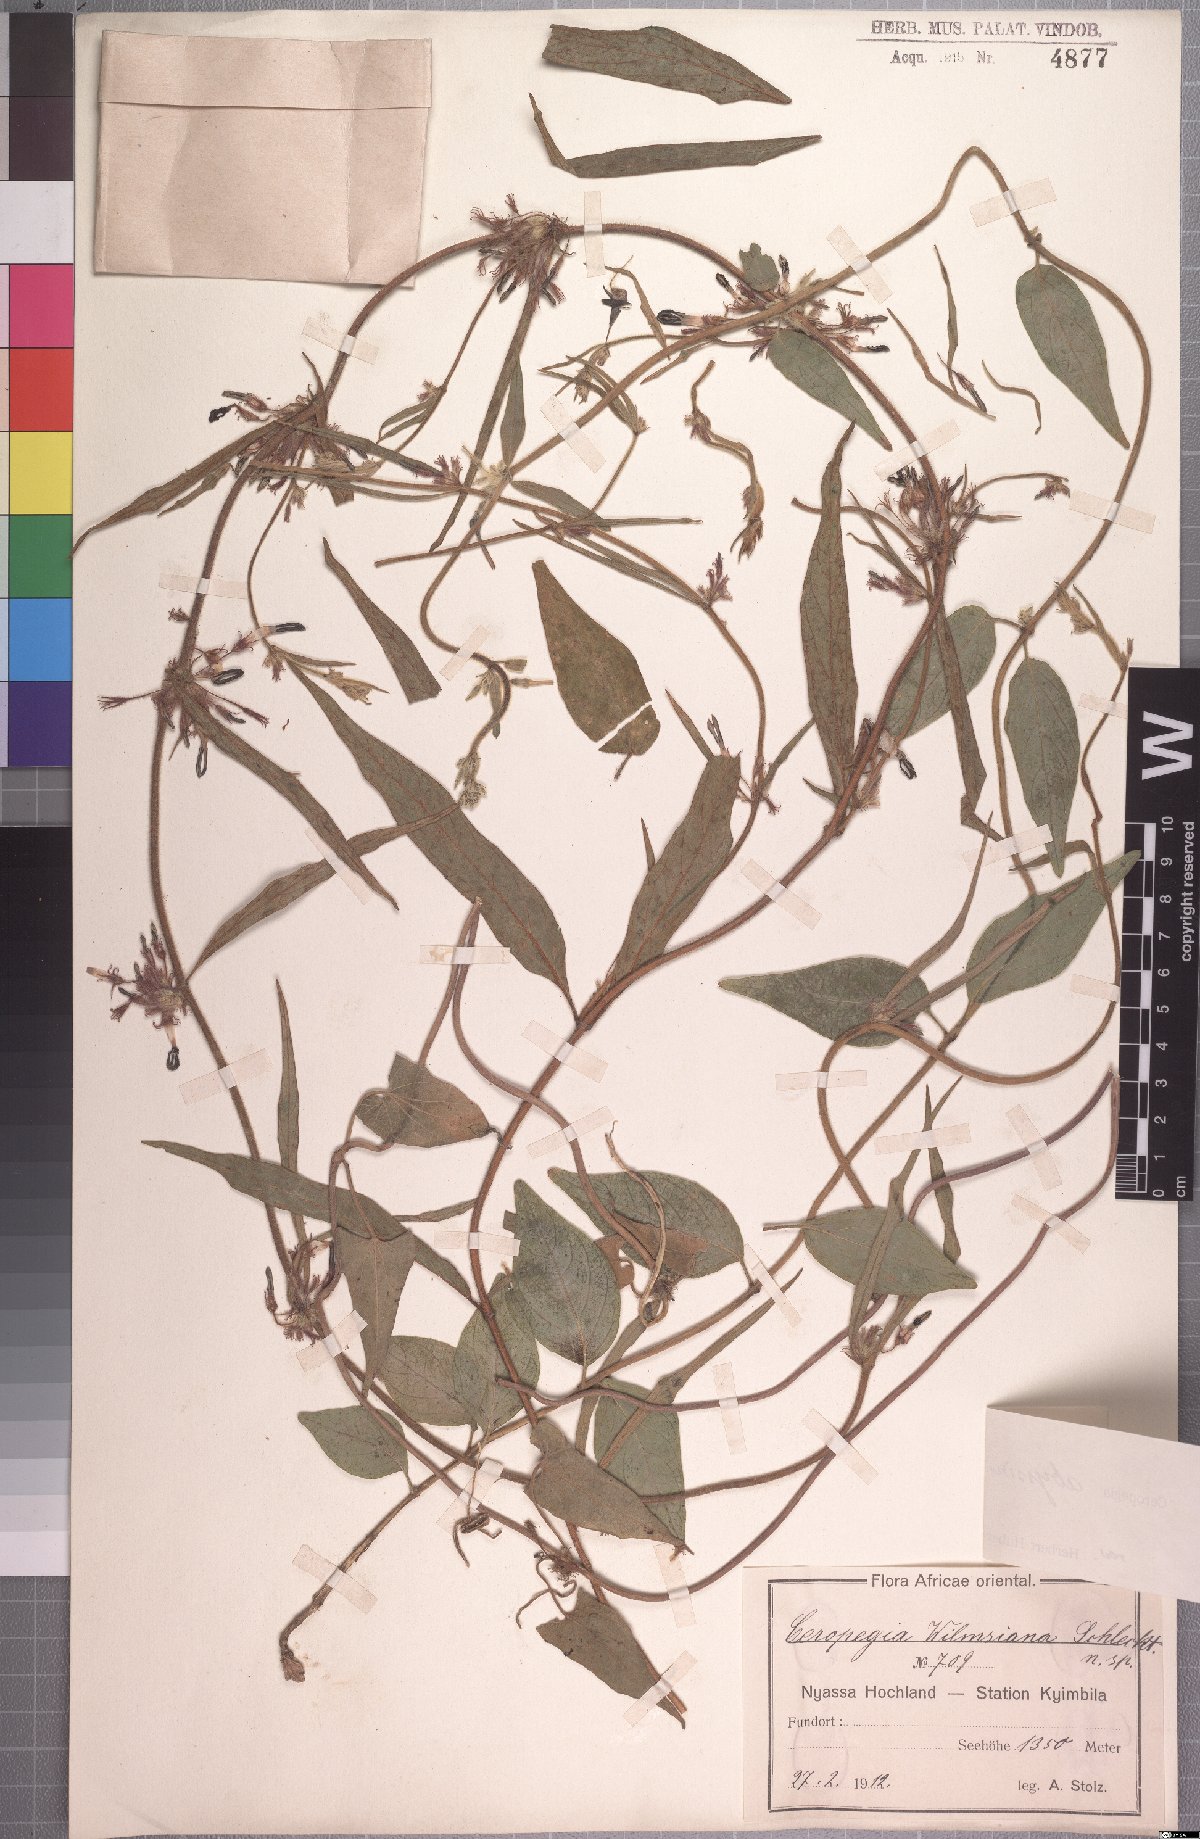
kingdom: Plantae
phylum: Tracheophyta
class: Magnoliopsida
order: Gentianales
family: Apocynaceae
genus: Ceropegia
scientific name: Ceropegia abyssinica
